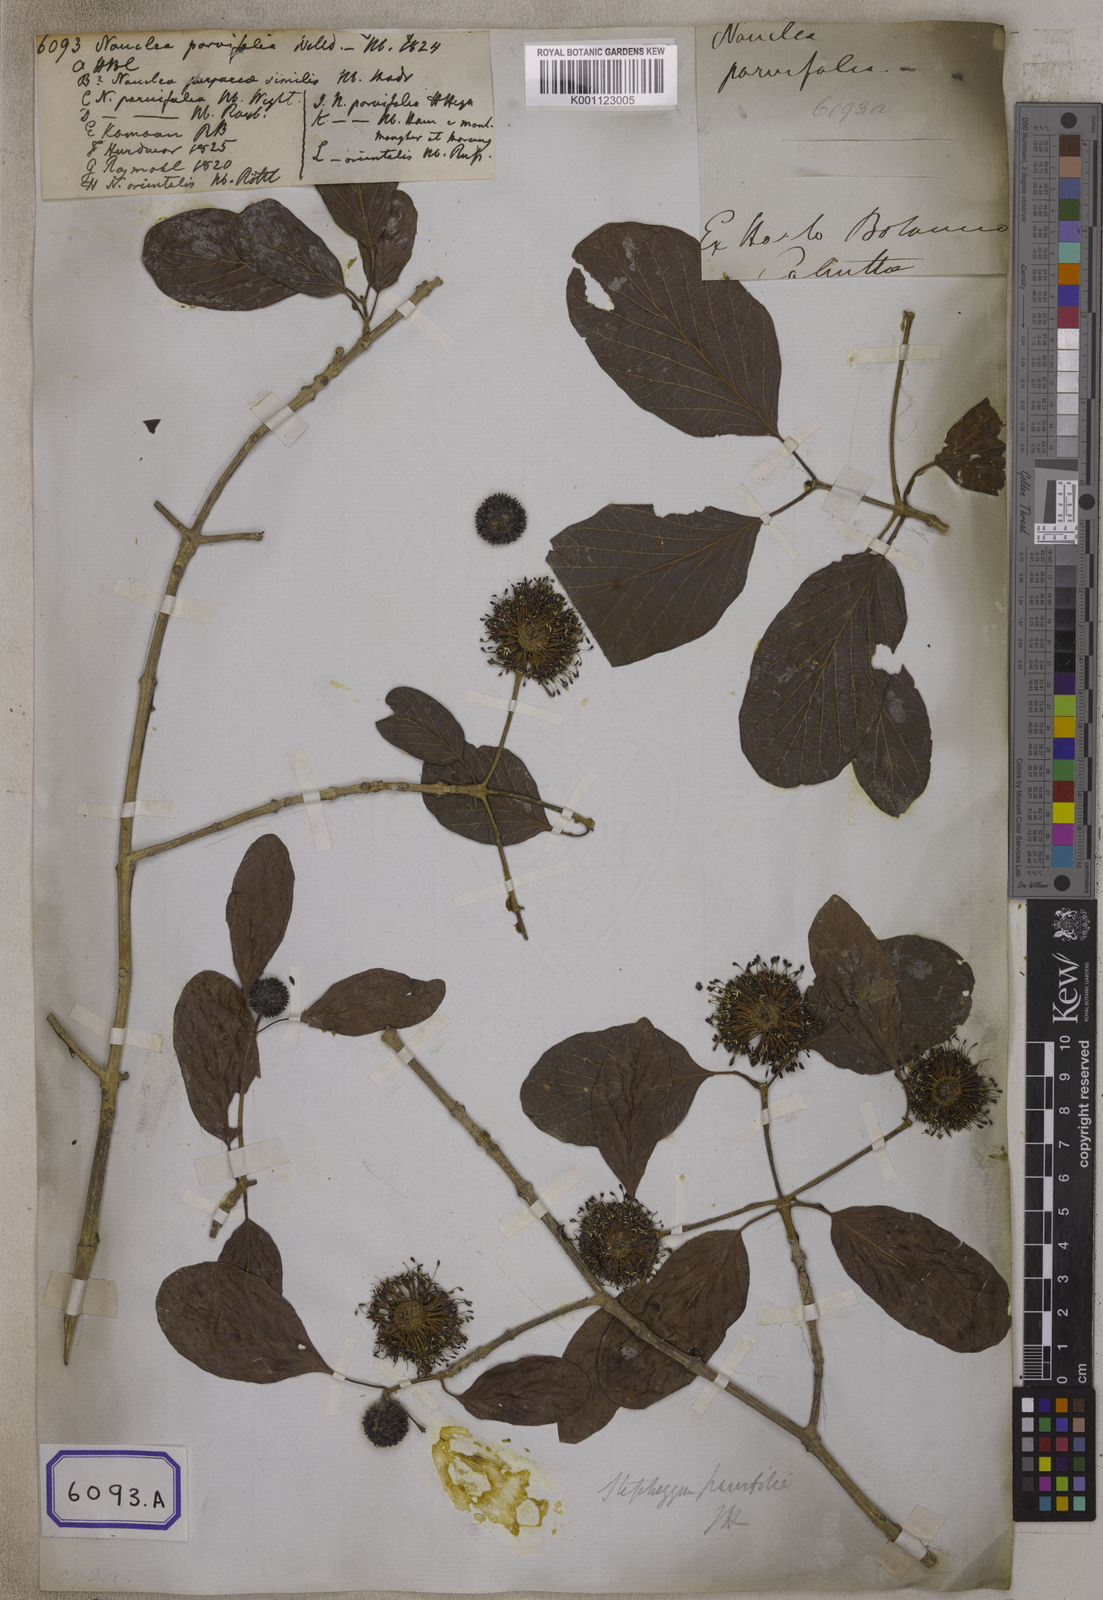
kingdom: Plantae
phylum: Tracheophyta
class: Magnoliopsida
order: Gentianales
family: Rubiaceae
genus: Nauclea
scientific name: Nauclea
